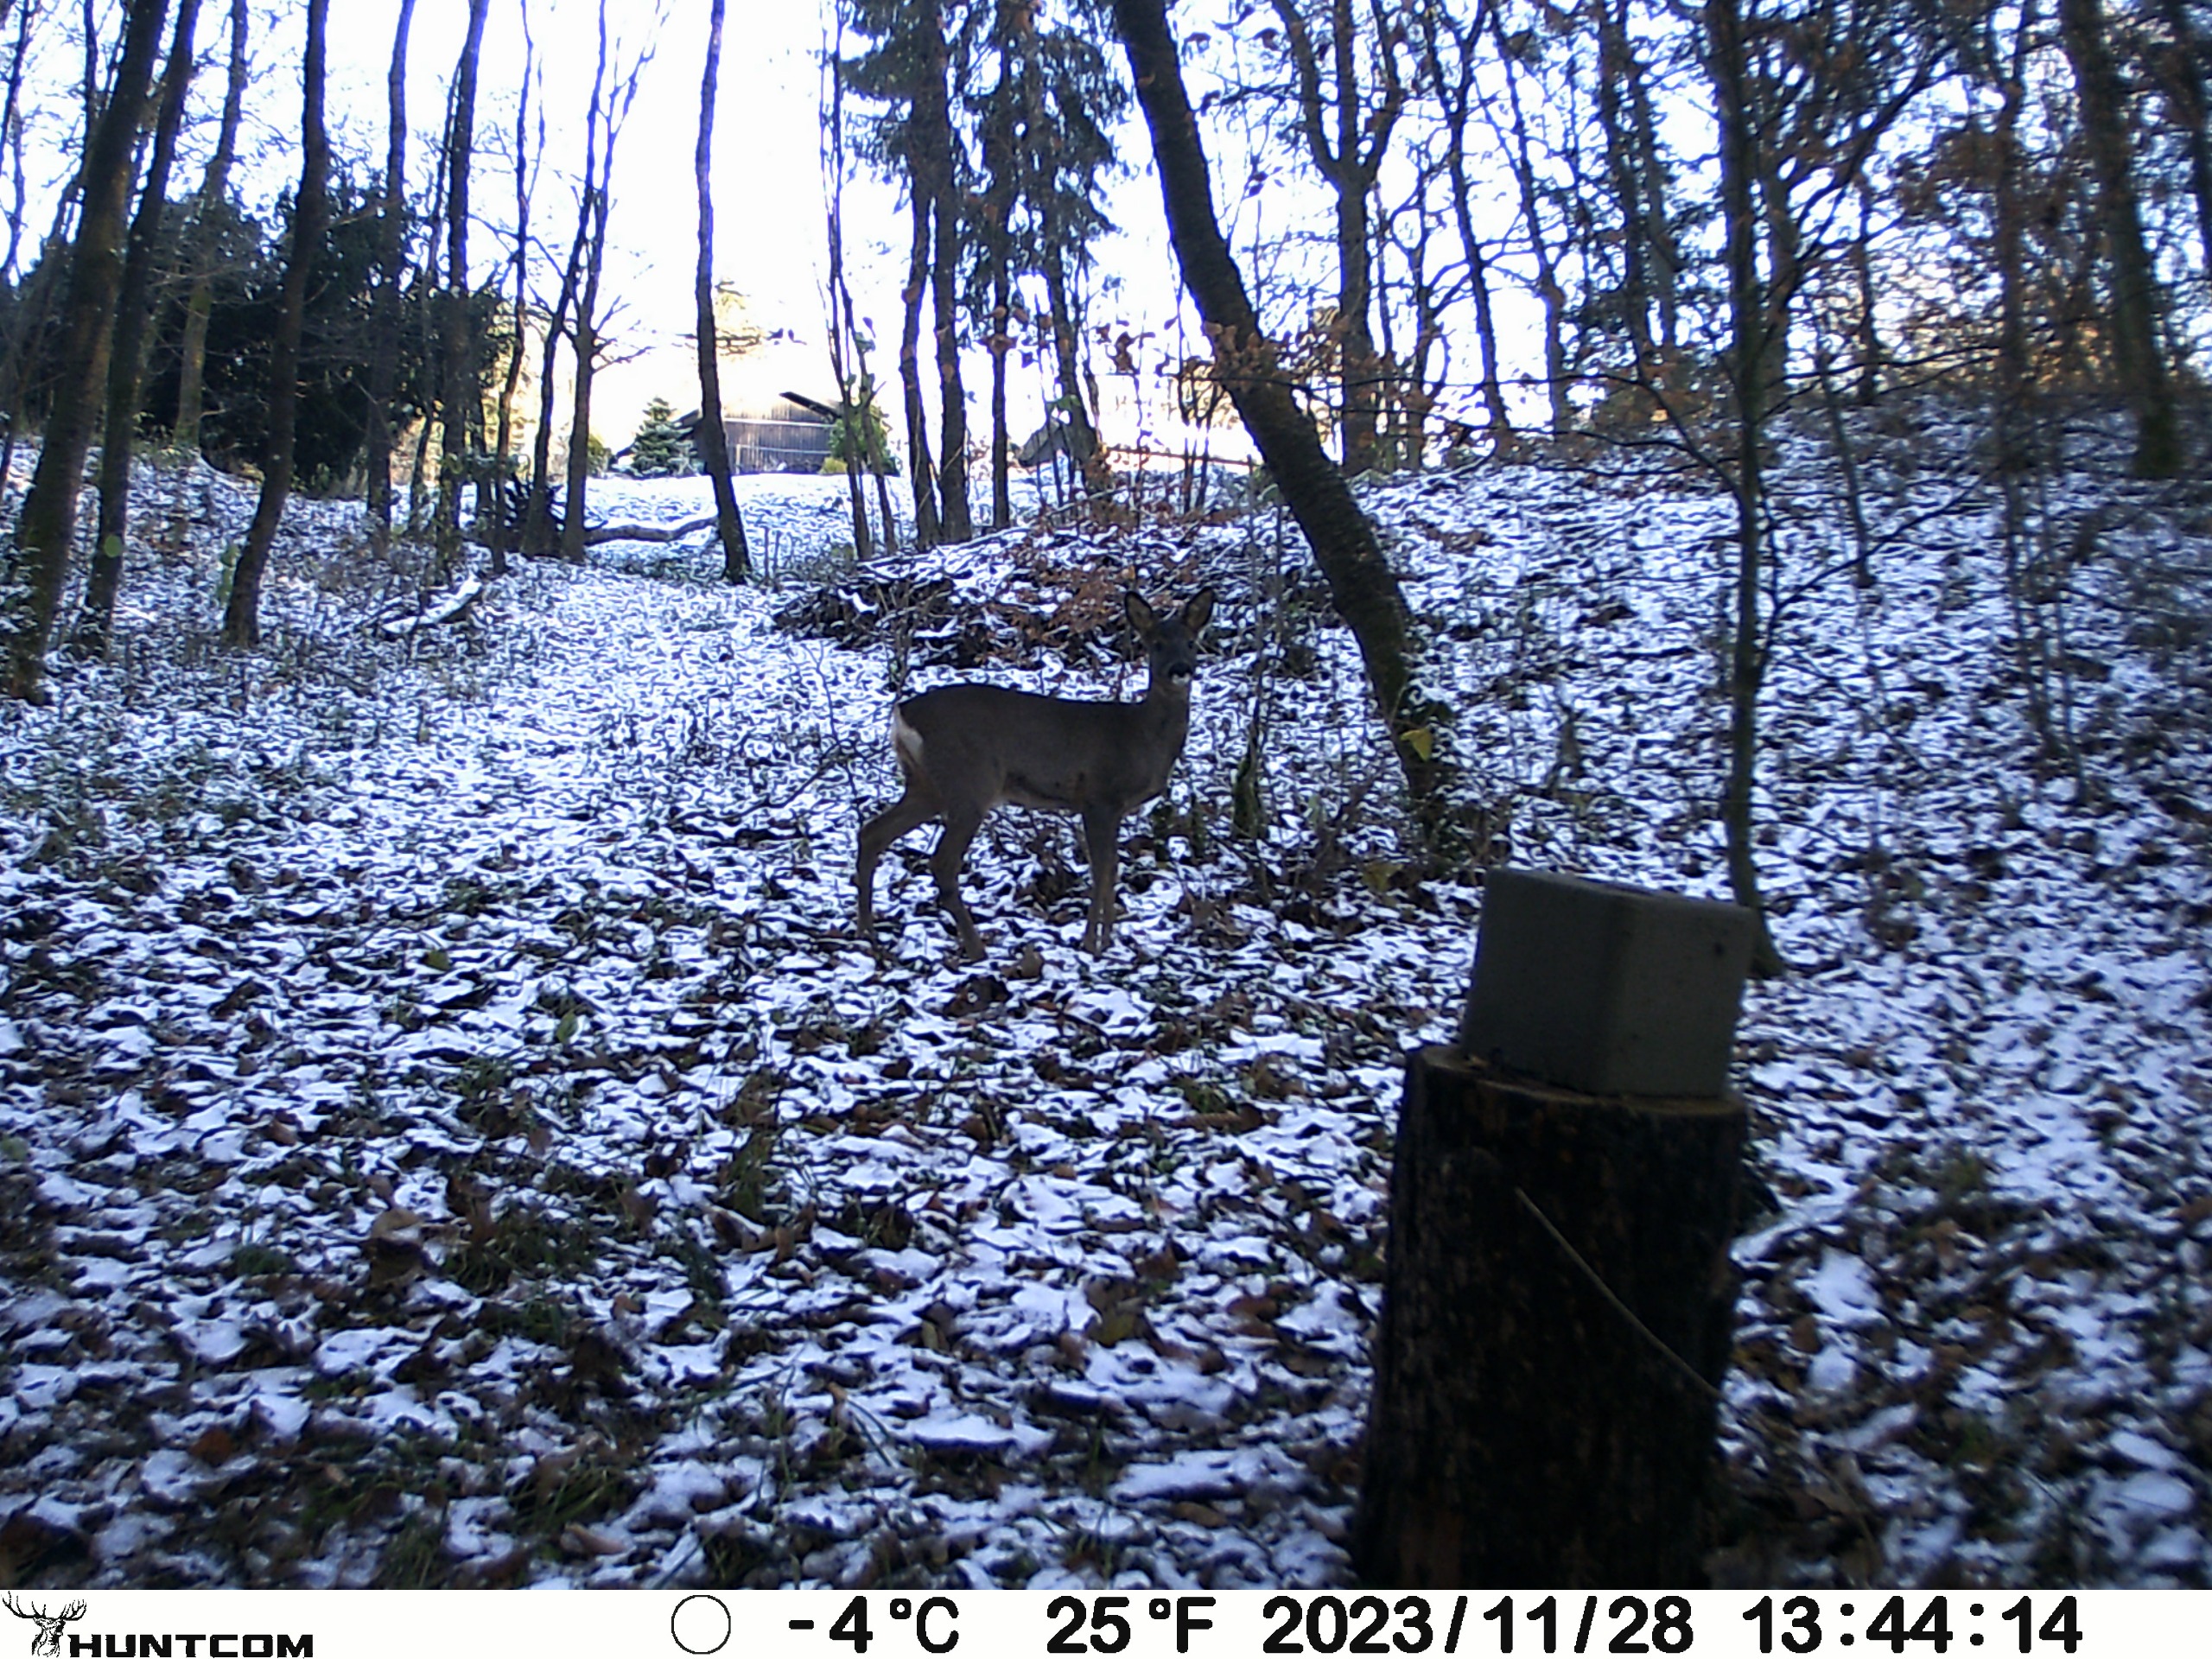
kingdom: Animalia
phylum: Chordata
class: Mammalia
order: Artiodactyla
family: Cervidae
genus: Capreolus
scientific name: Capreolus capreolus
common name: Rådyr
